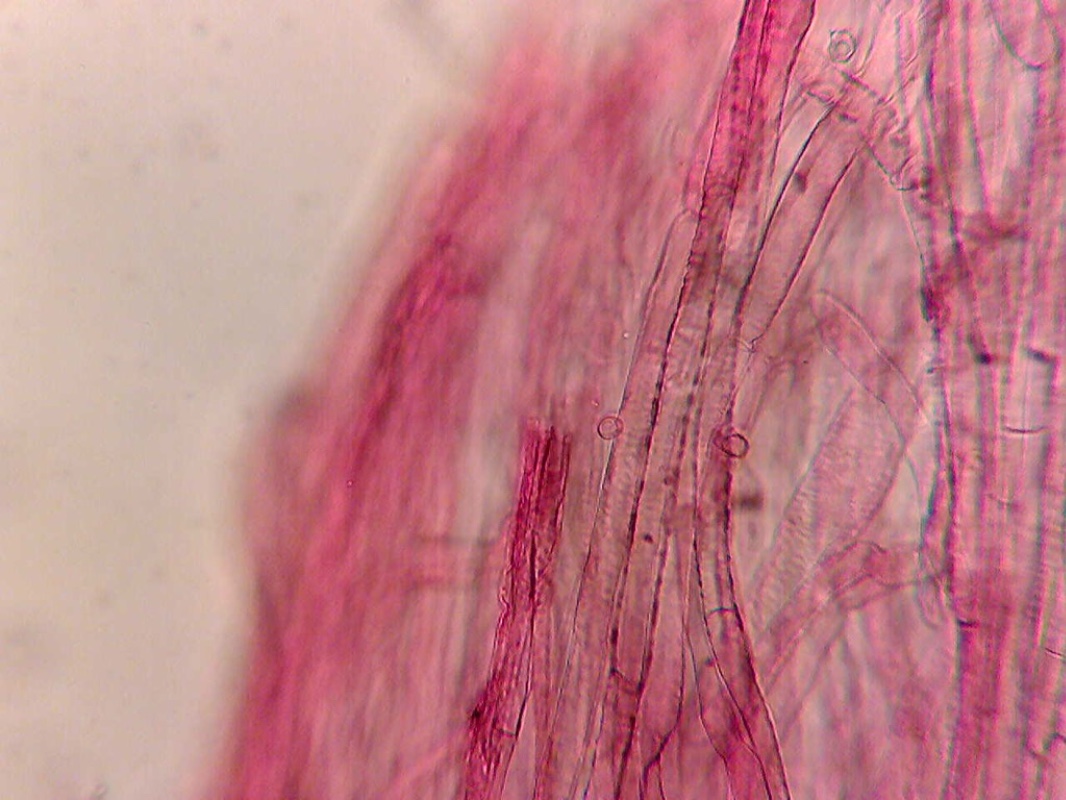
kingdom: Fungi
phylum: Basidiomycota
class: Agaricomycetes
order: Agaricales
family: Entolomataceae
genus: Entoloma
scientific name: Entoloma
